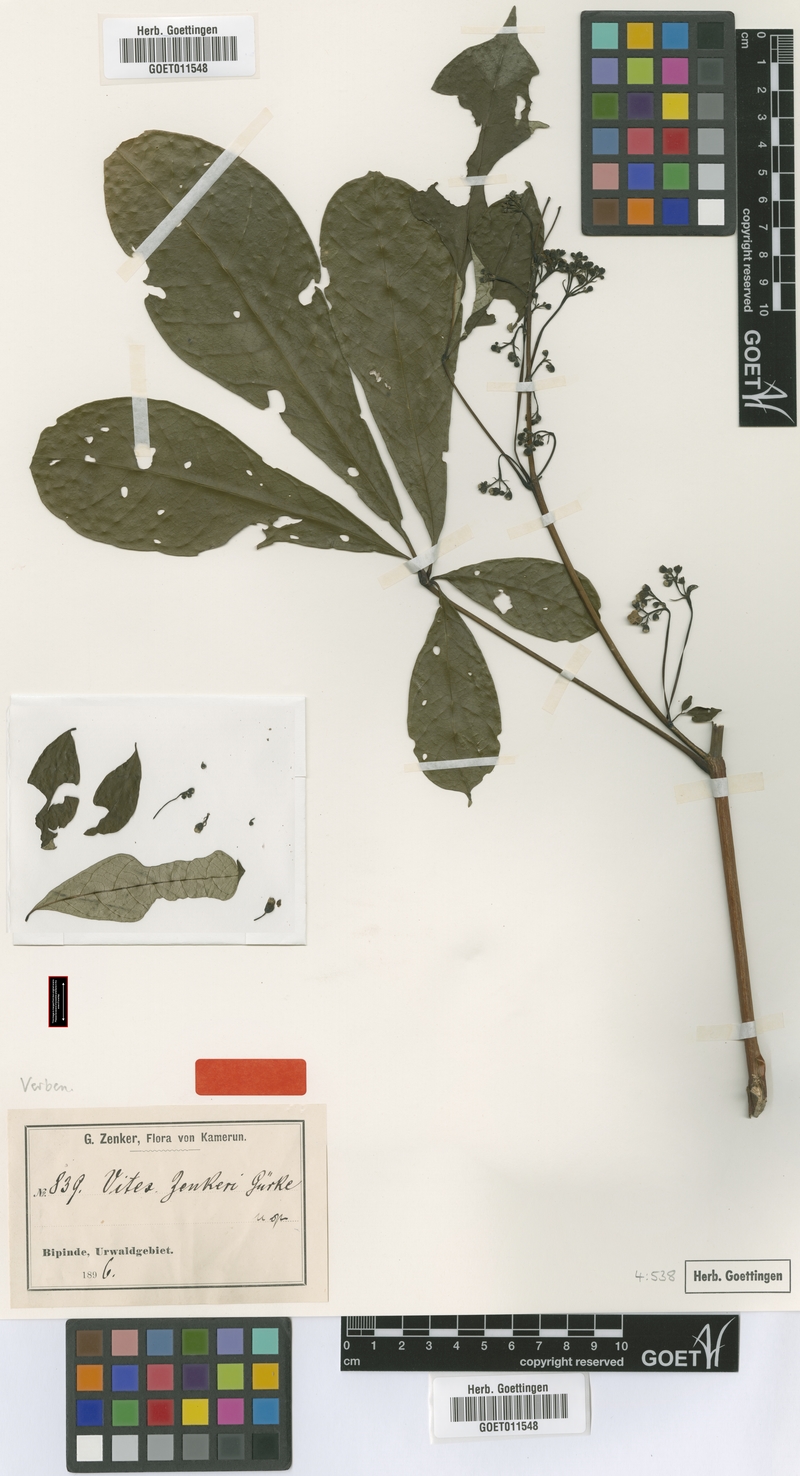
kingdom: Plantae
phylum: Tracheophyta
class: Magnoliopsida
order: Lamiales
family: Lamiaceae
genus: Vitex
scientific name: Vitex zenkeri
